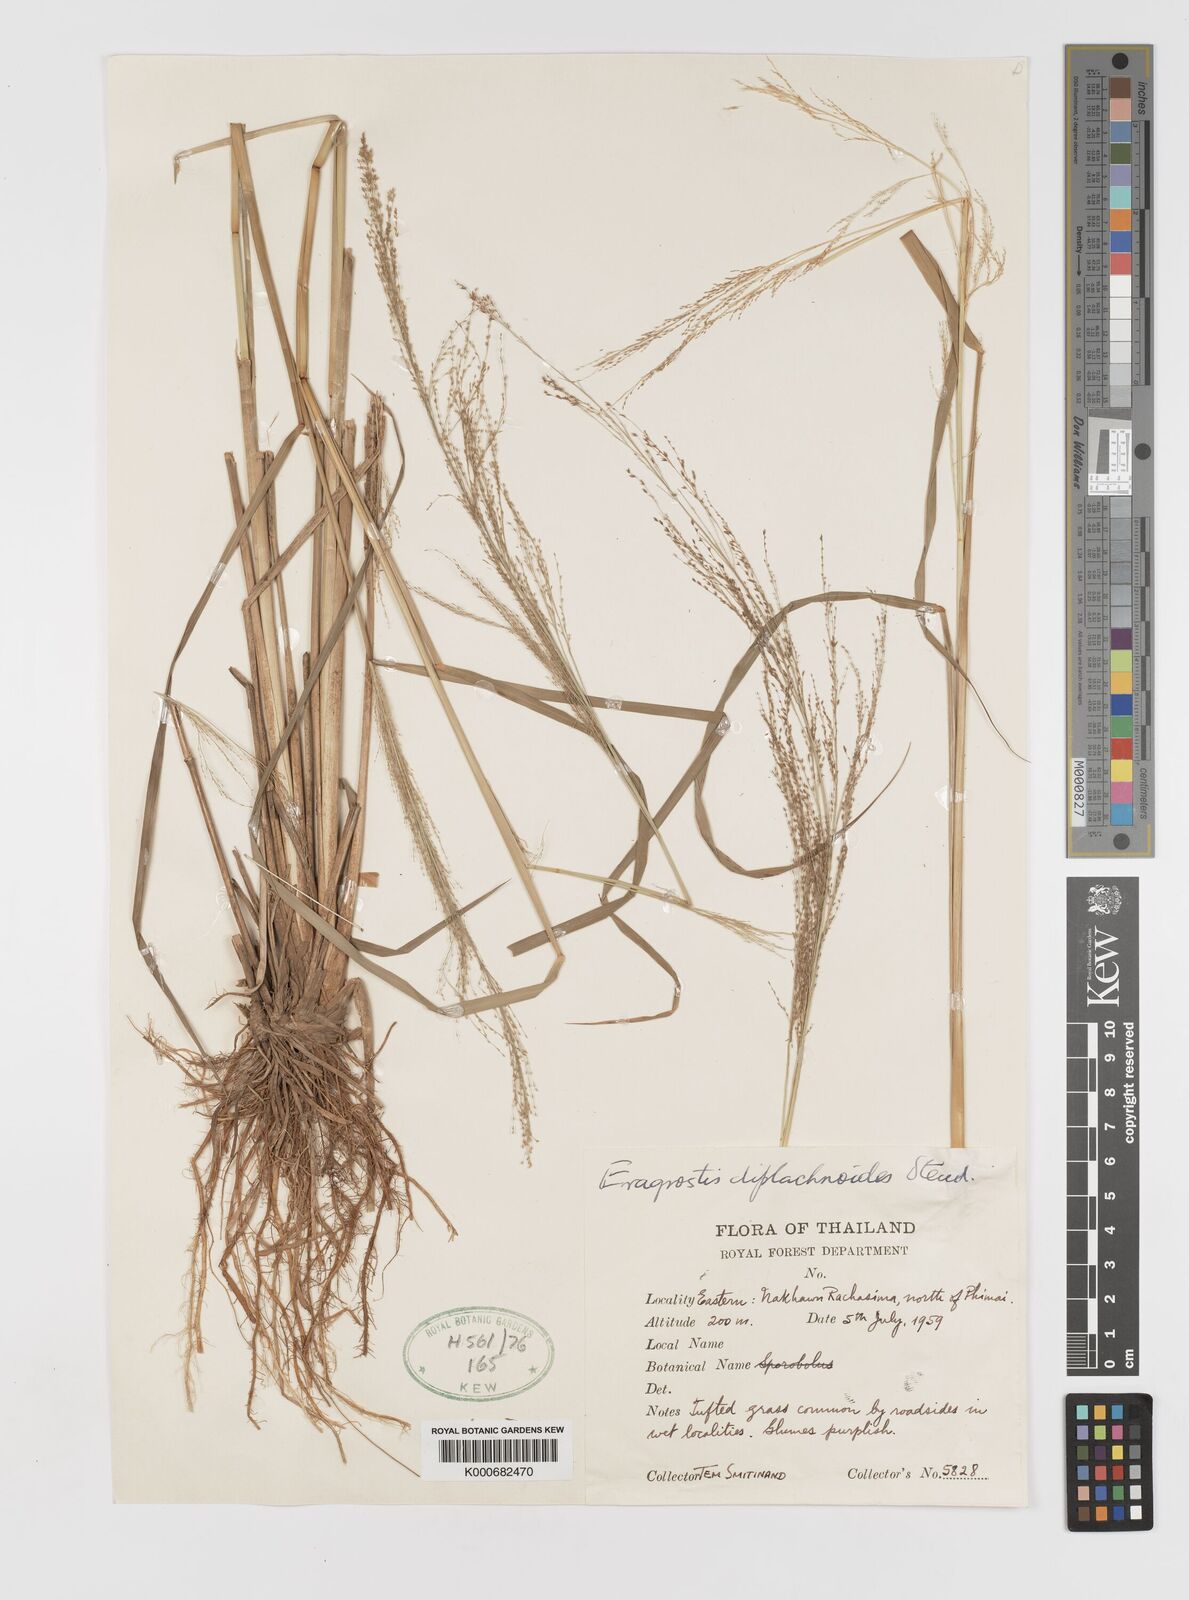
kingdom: Plantae
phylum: Tracheophyta
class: Liliopsida
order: Poales
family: Poaceae
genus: Eragrostis
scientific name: Eragrostis japonica
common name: Pond lovegrass
